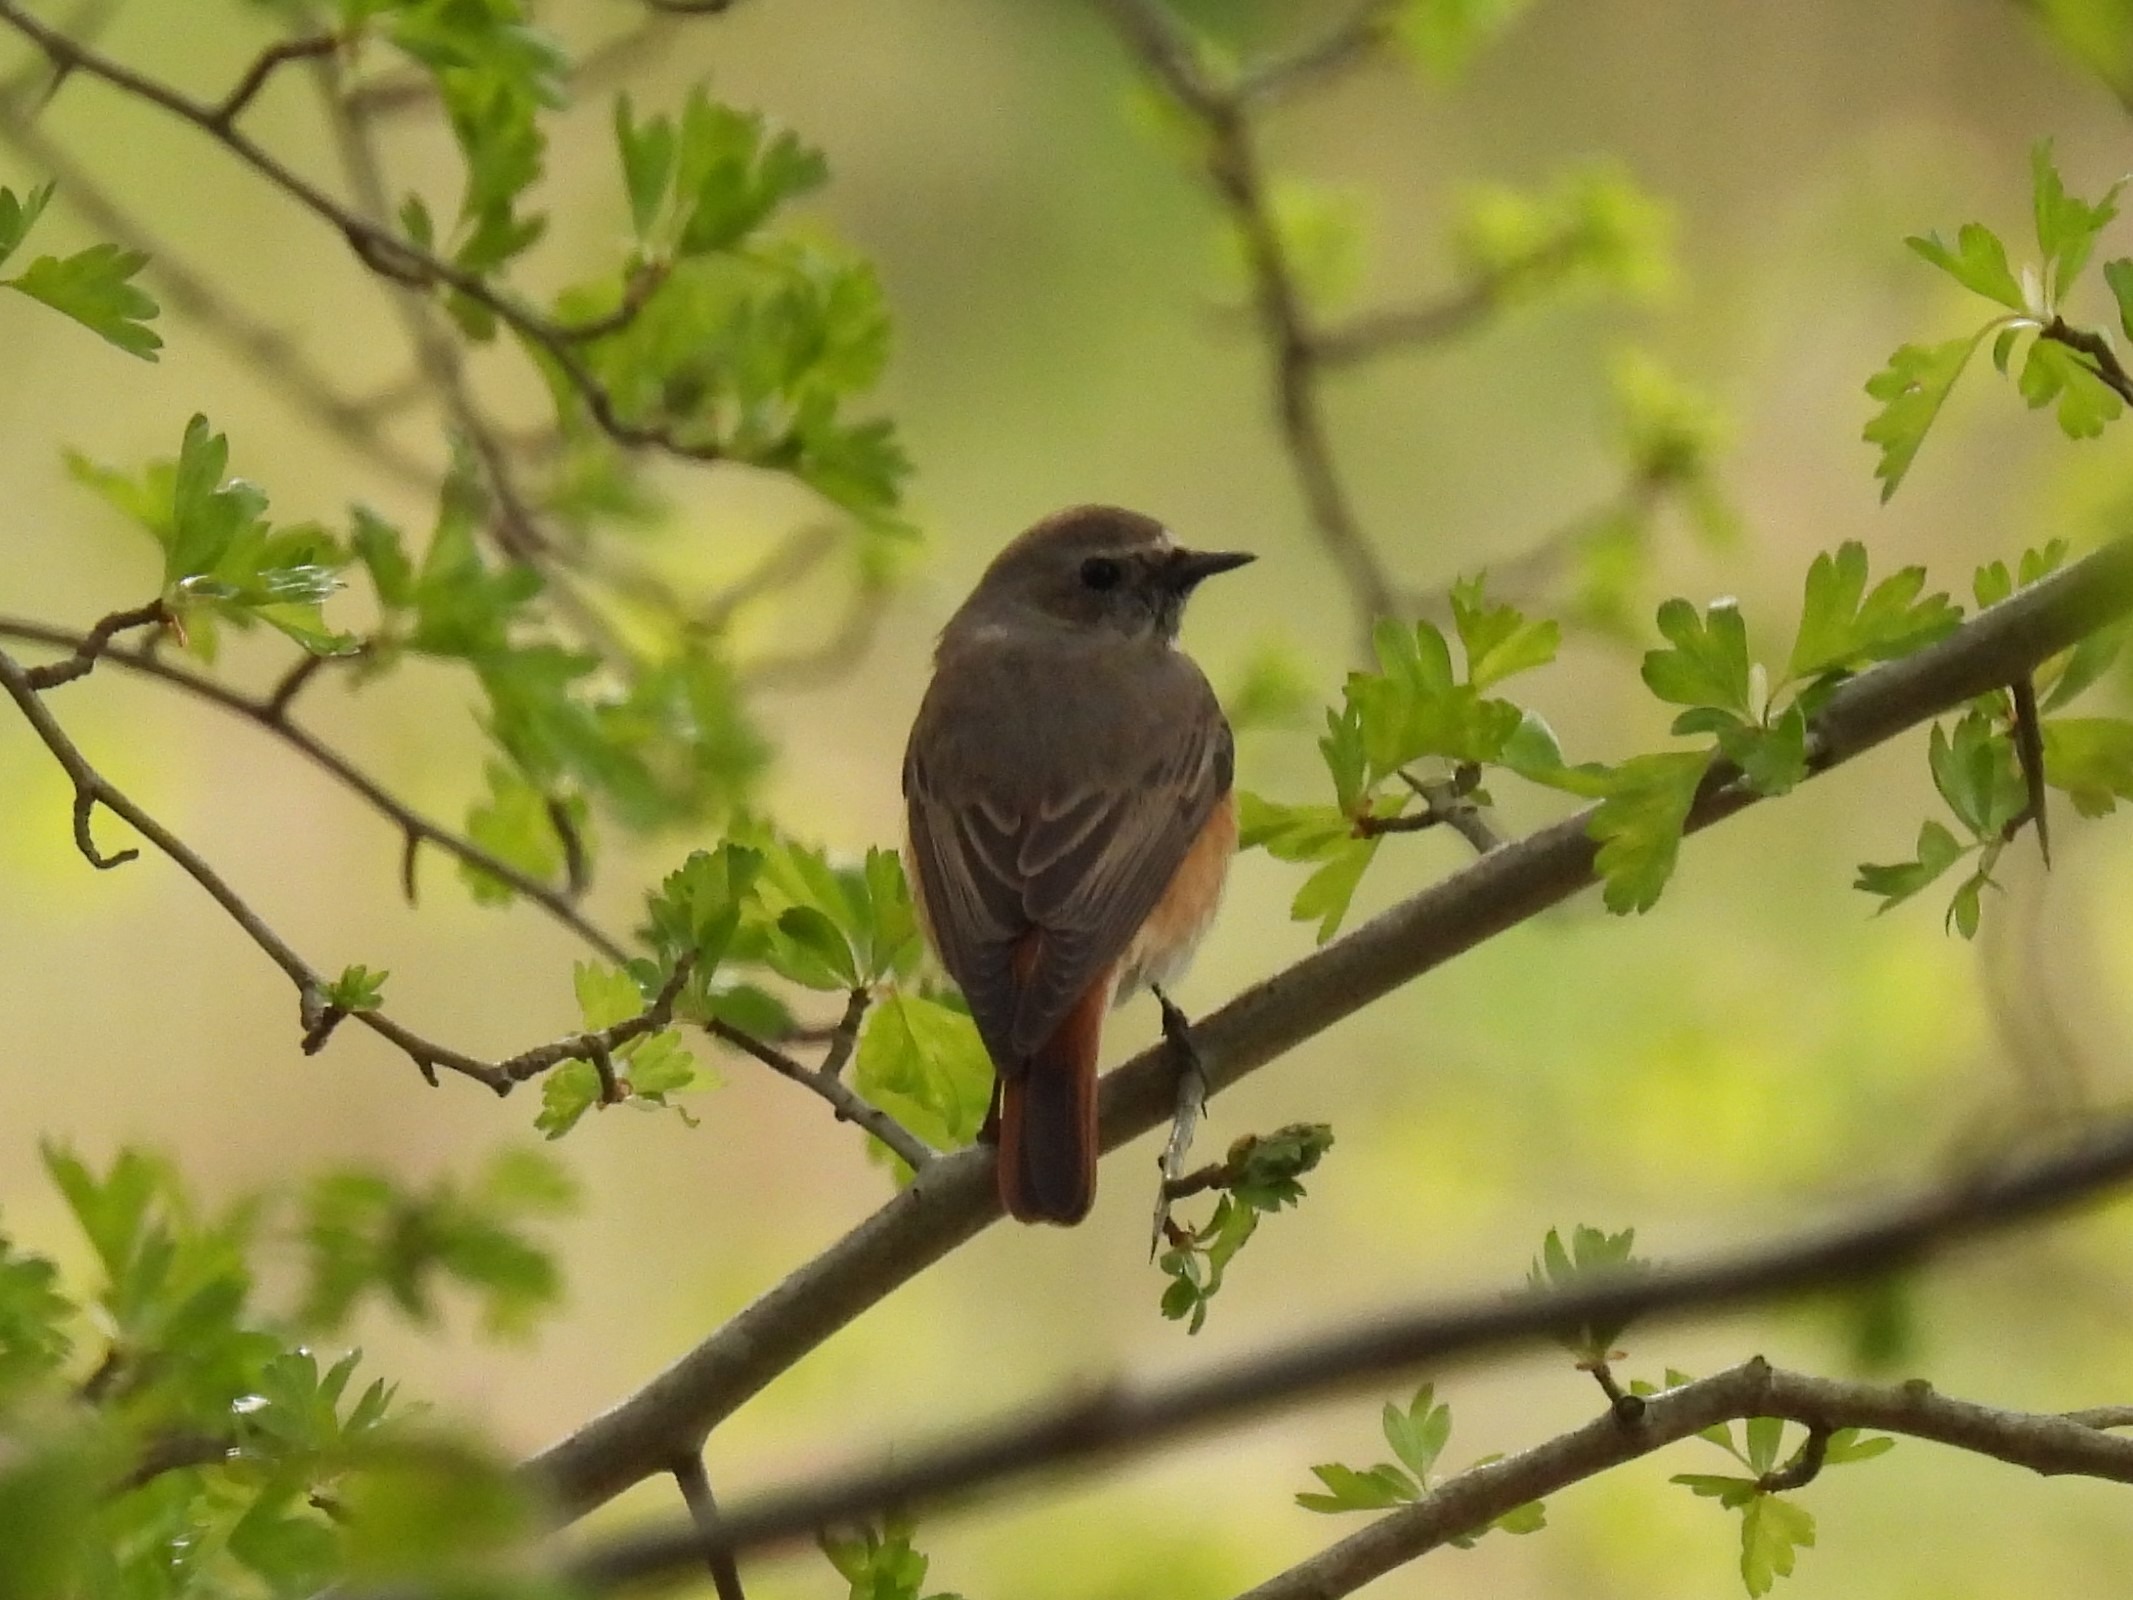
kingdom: Animalia
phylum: Chordata
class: Aves
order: Passeriformes
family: Muscicapidae
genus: Phoenicurus
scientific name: Phoenicurus phoenicurus
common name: Rødstjert
